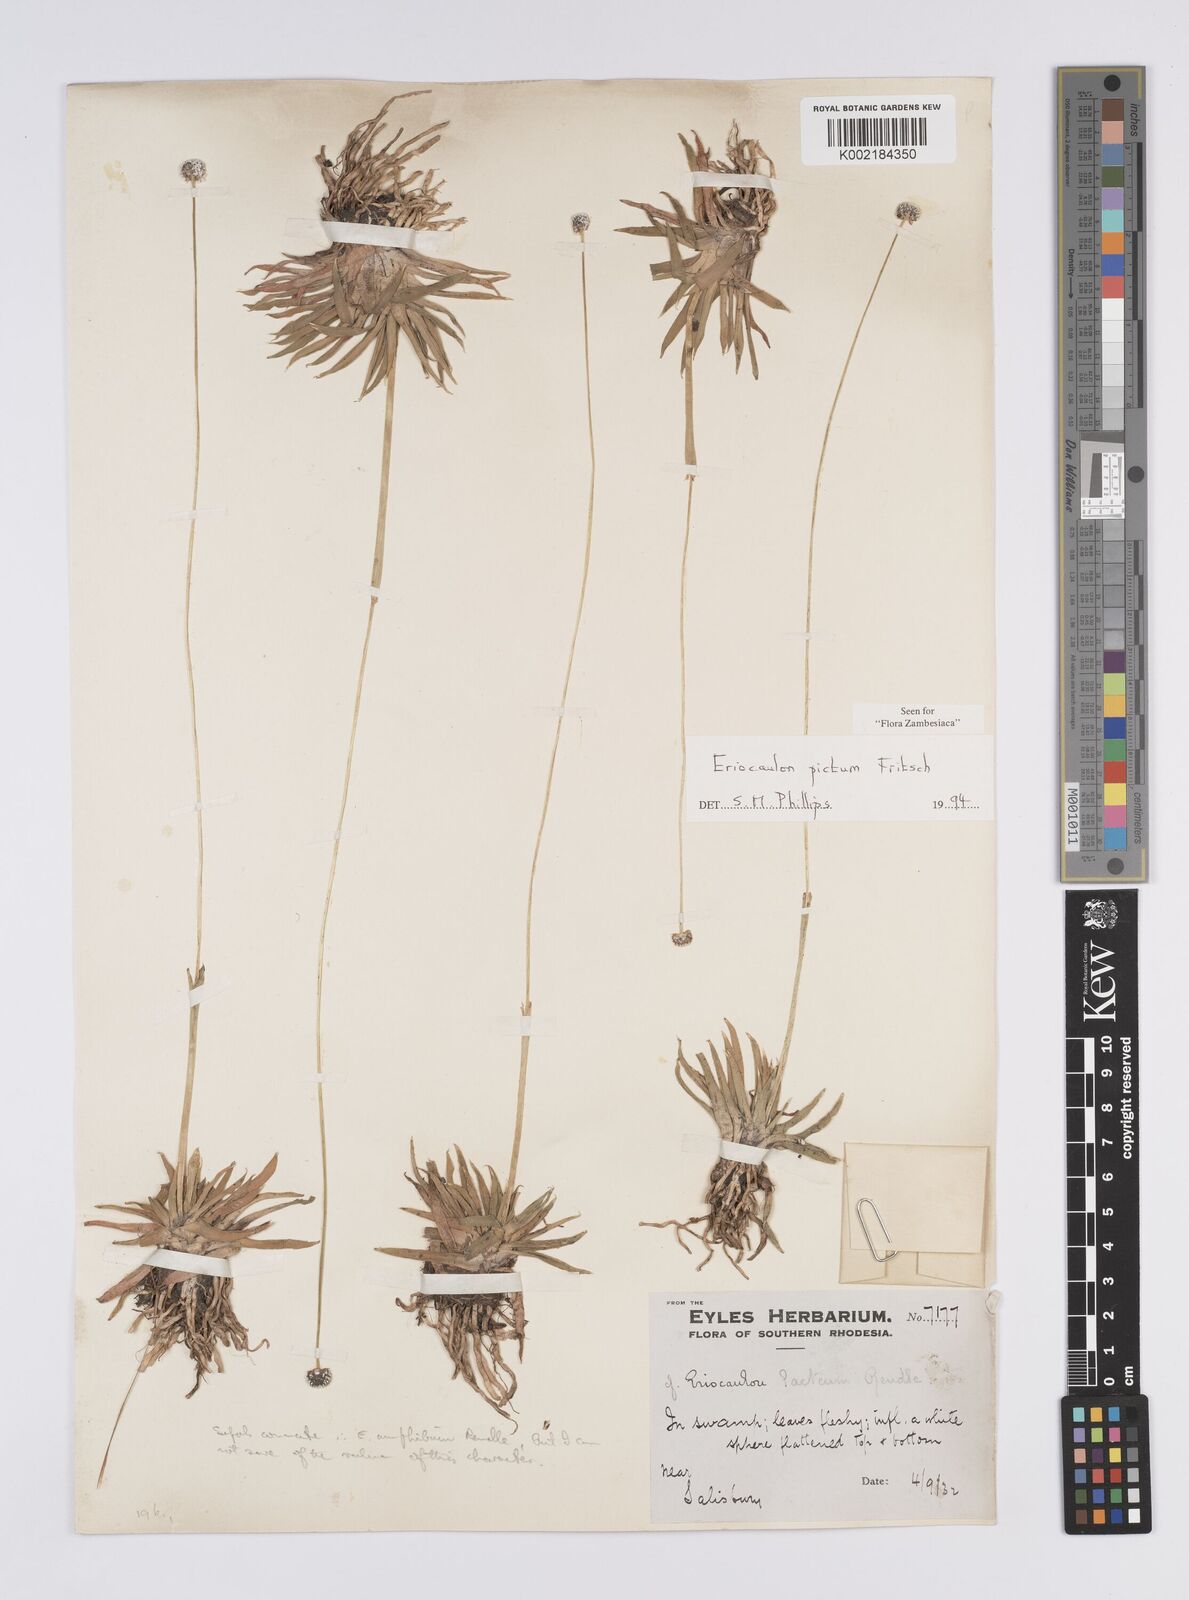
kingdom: Plantae
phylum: Tracheophyta
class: Liliopsida
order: Poales
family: Eriocaulaceae
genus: Eriocaulon
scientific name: Eriocaulon pictum
